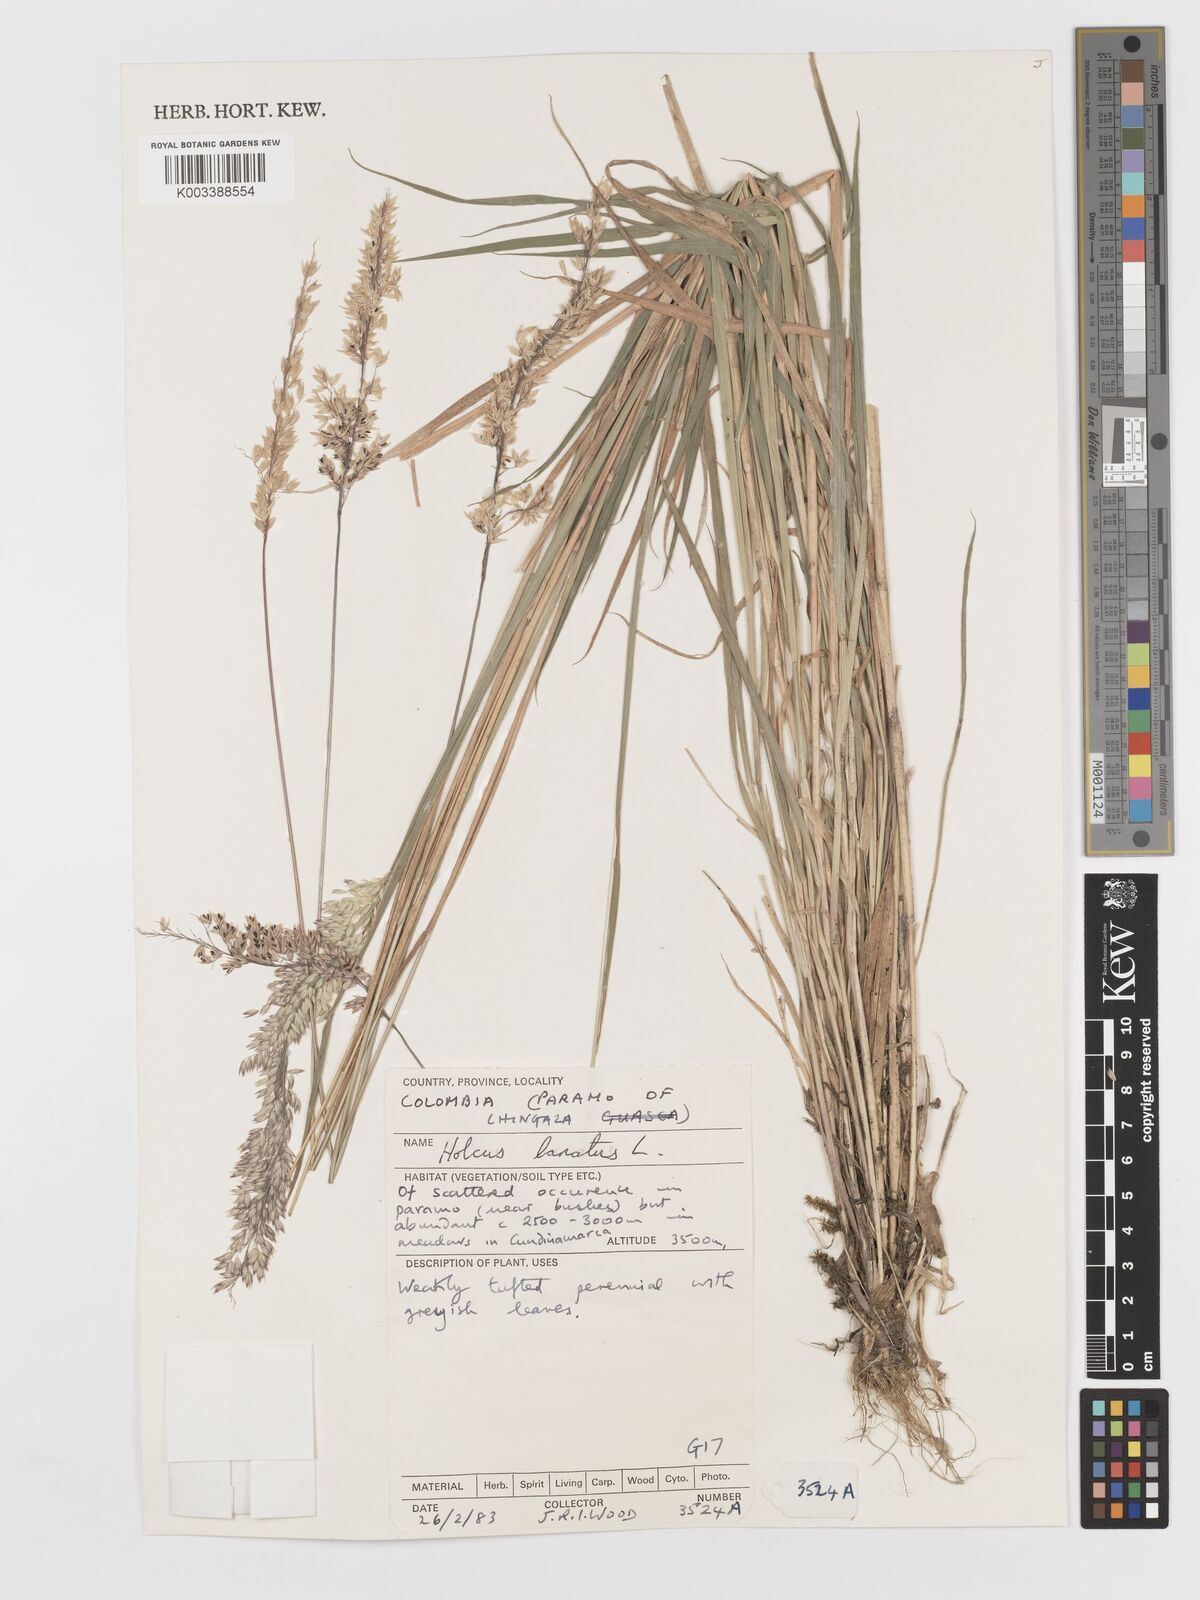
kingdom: Plantae
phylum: Tracheophyta
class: Liliopsida
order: Poales
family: Poaceae
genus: Holcus
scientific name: Holcus lanatus
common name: Yorkshire-fog
